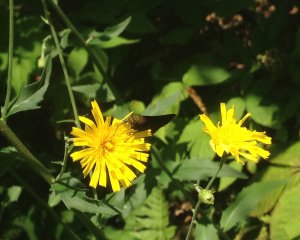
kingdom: Animalia
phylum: Arthropoda
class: Insecta
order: Lepidoptera
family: Hesperiidae
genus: Euphyes
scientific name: Euphyes vestris
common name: Dun Skipper
